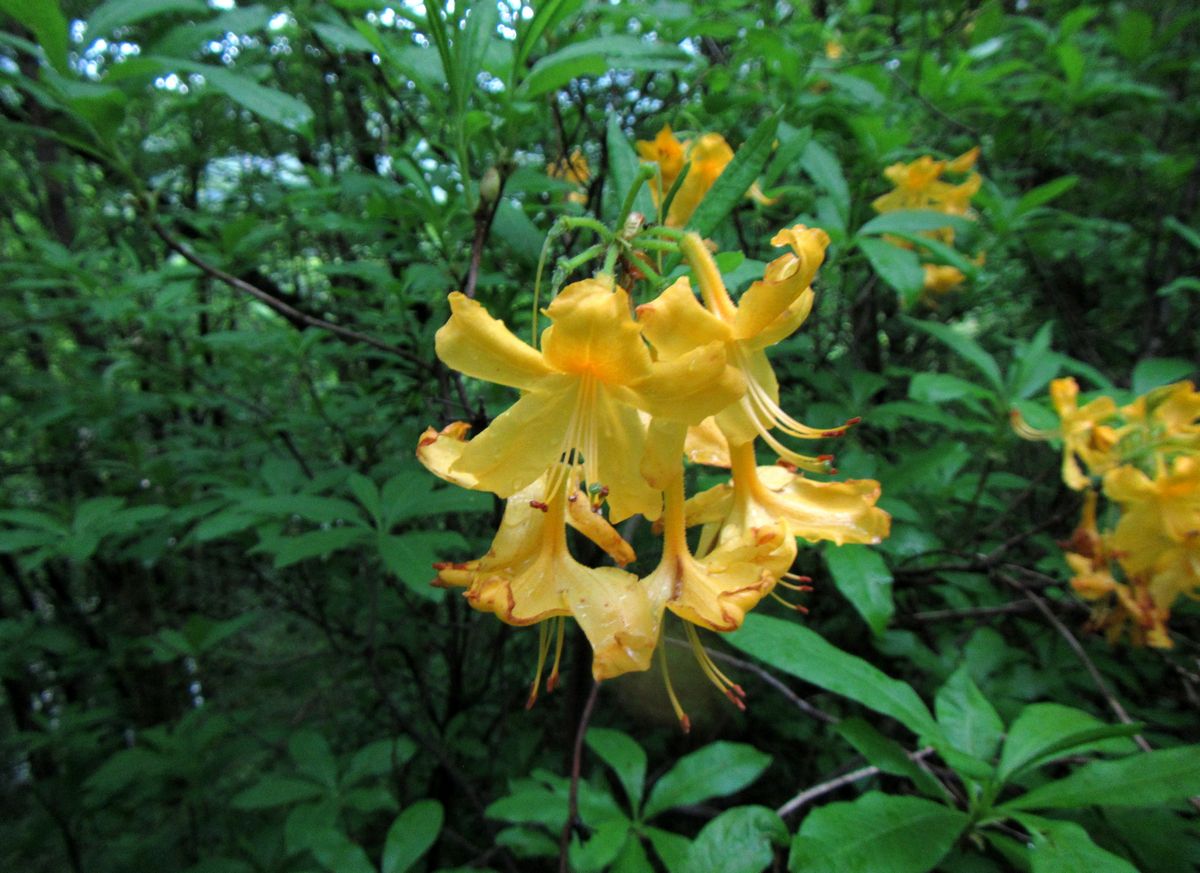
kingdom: Plantae
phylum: Tracheophyta
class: Magnoliopsida
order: Ericales
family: Ericaceae
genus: Rhododendron
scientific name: Rhododendron luteum
